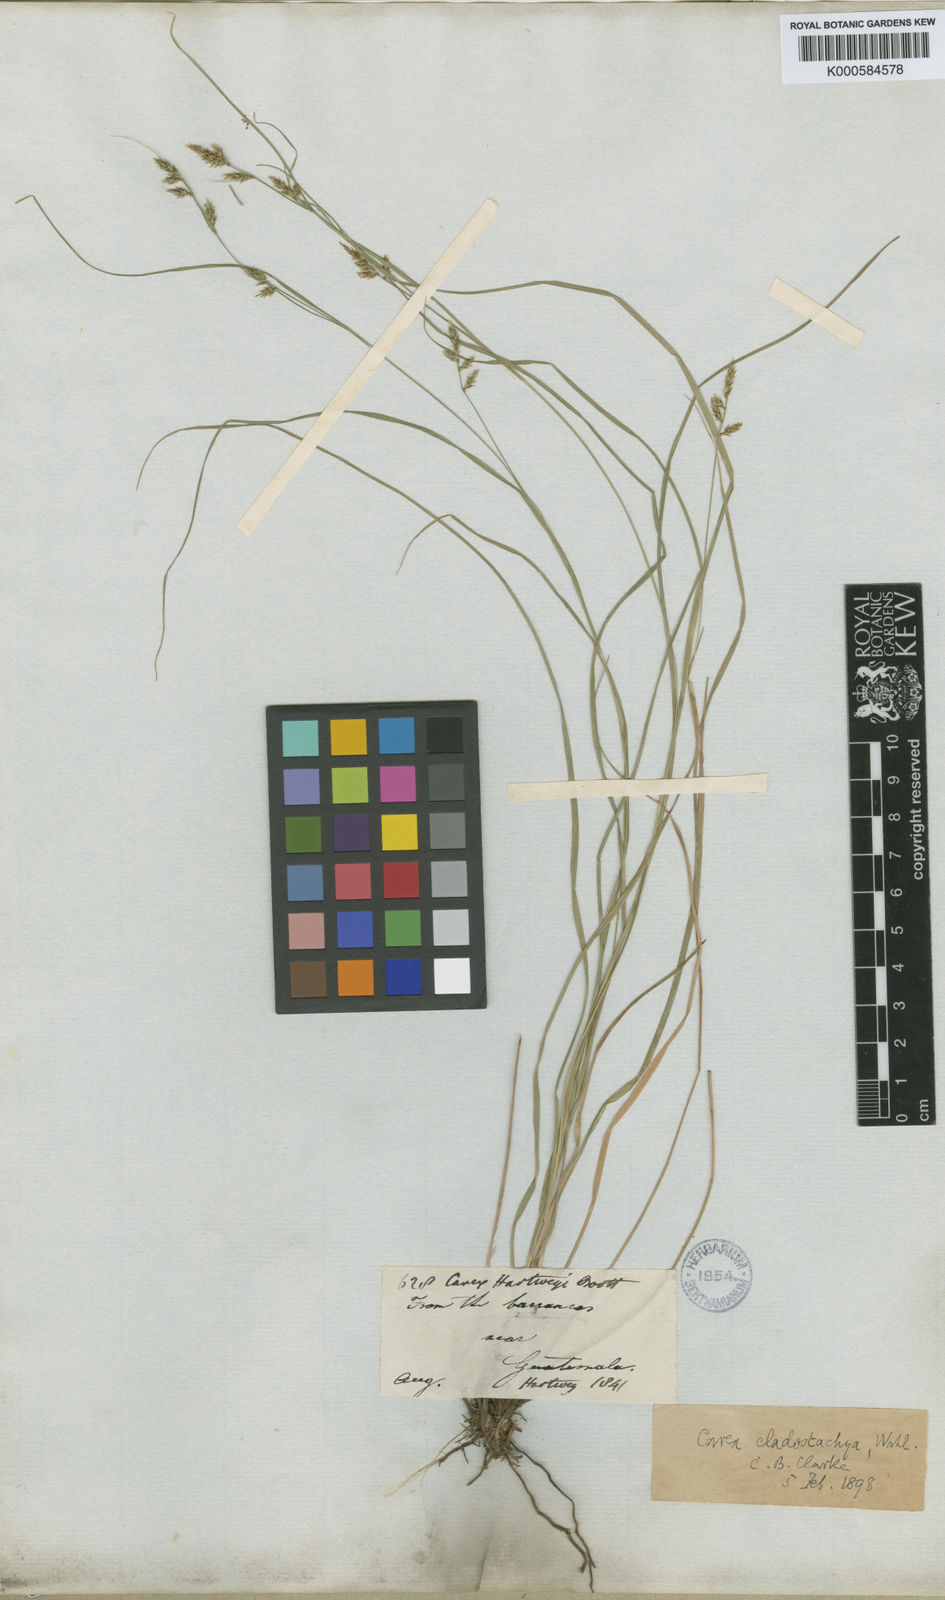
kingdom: Plantae
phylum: Tracheophyta
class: Liliopsida
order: Poales
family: Cyperaceae
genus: Carex
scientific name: Carex polystachya
